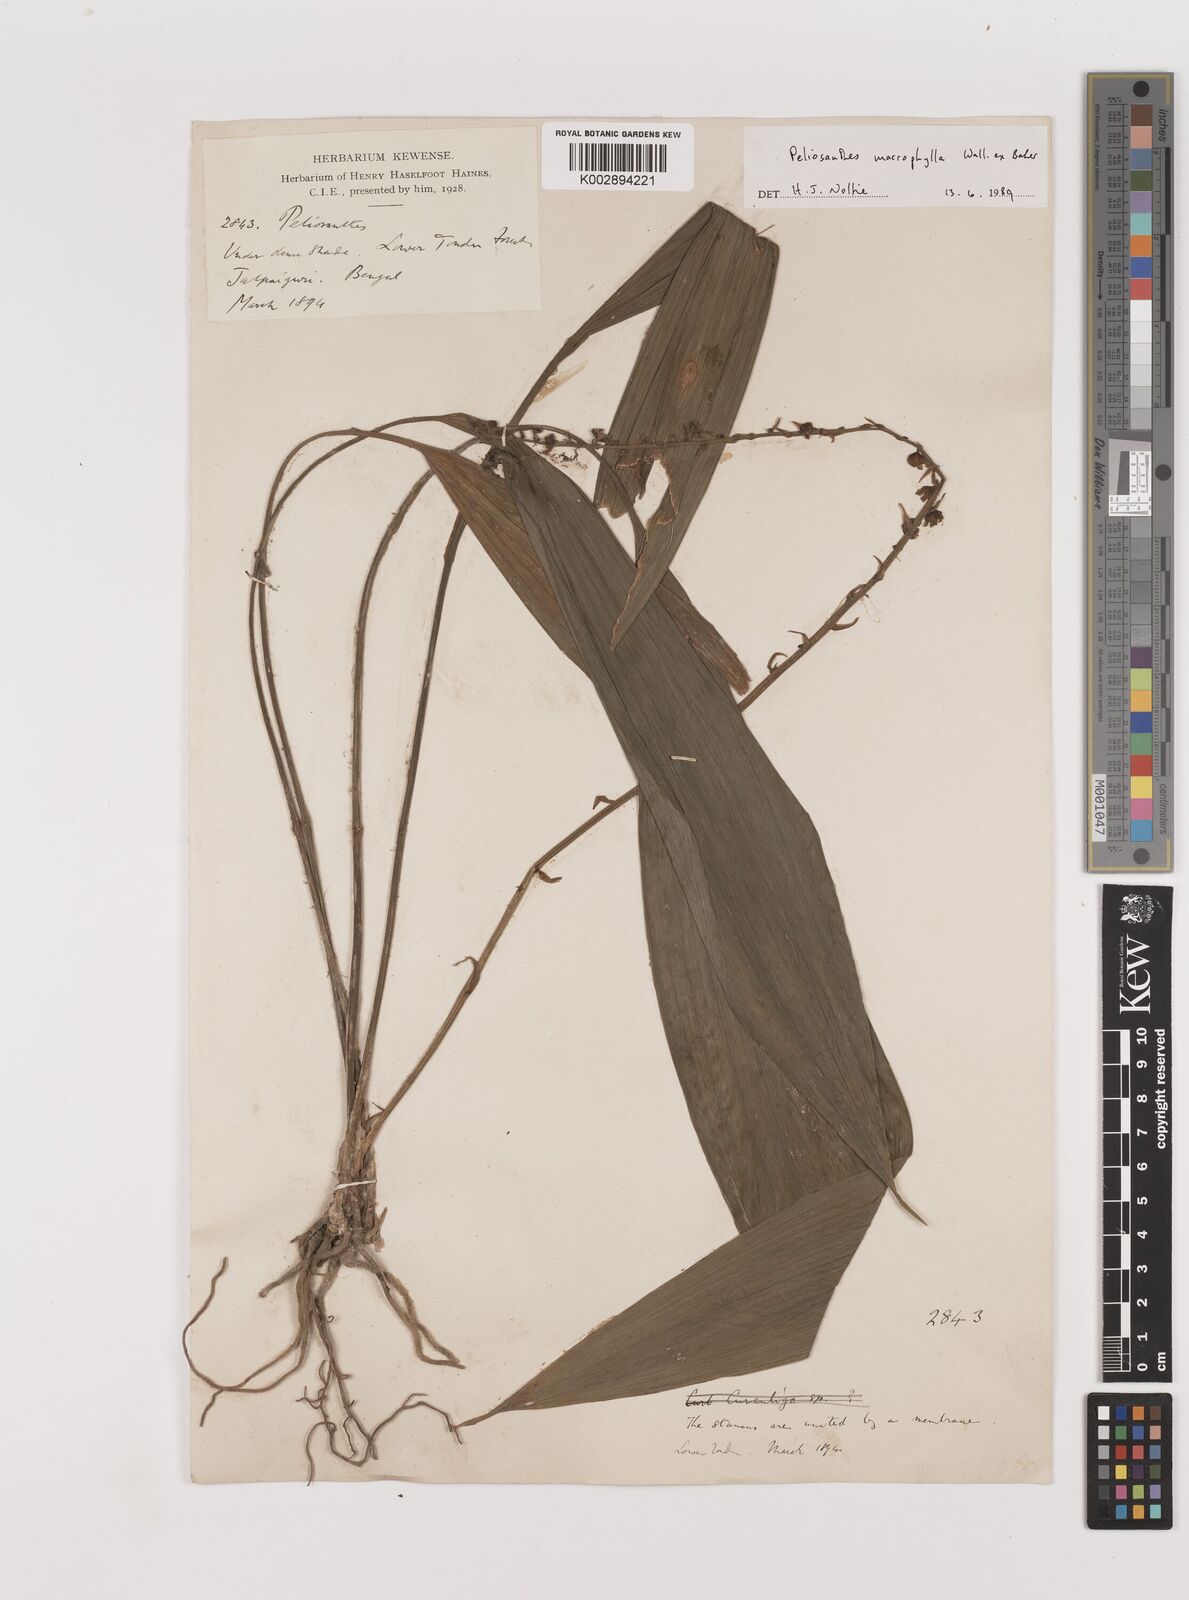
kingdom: Plantae
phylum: Tracheophyta
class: Liliopsida
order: Asparagales
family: Asparagaceae
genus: Peliosanthes
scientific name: Peliosanthes teta
